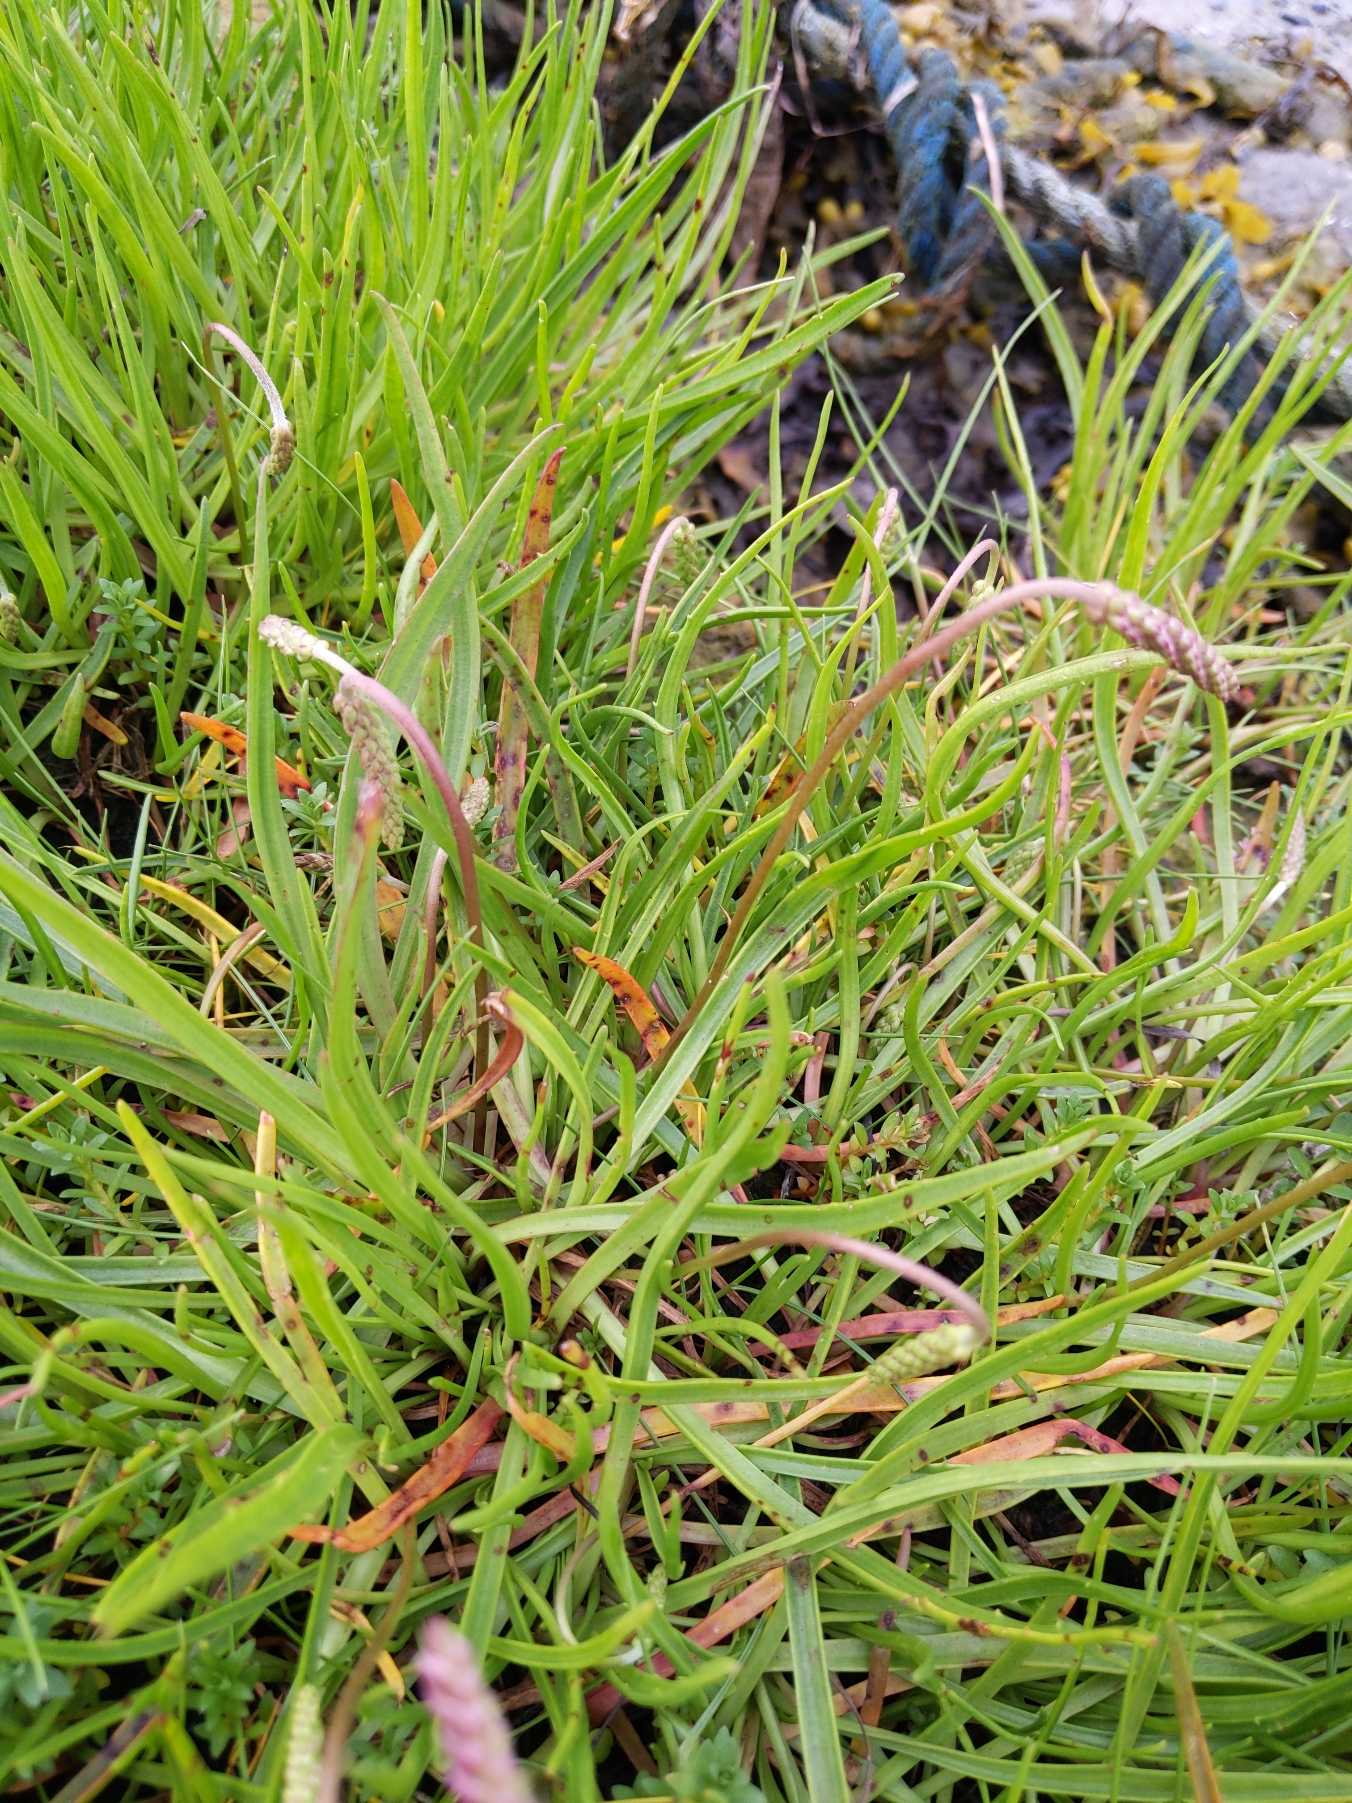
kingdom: Plantae
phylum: Tracheophyta
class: Magnoliopsida
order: Lamiales
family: Plantaginaceae
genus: Plantago
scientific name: Plantago maritima
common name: Strand-vejbred
